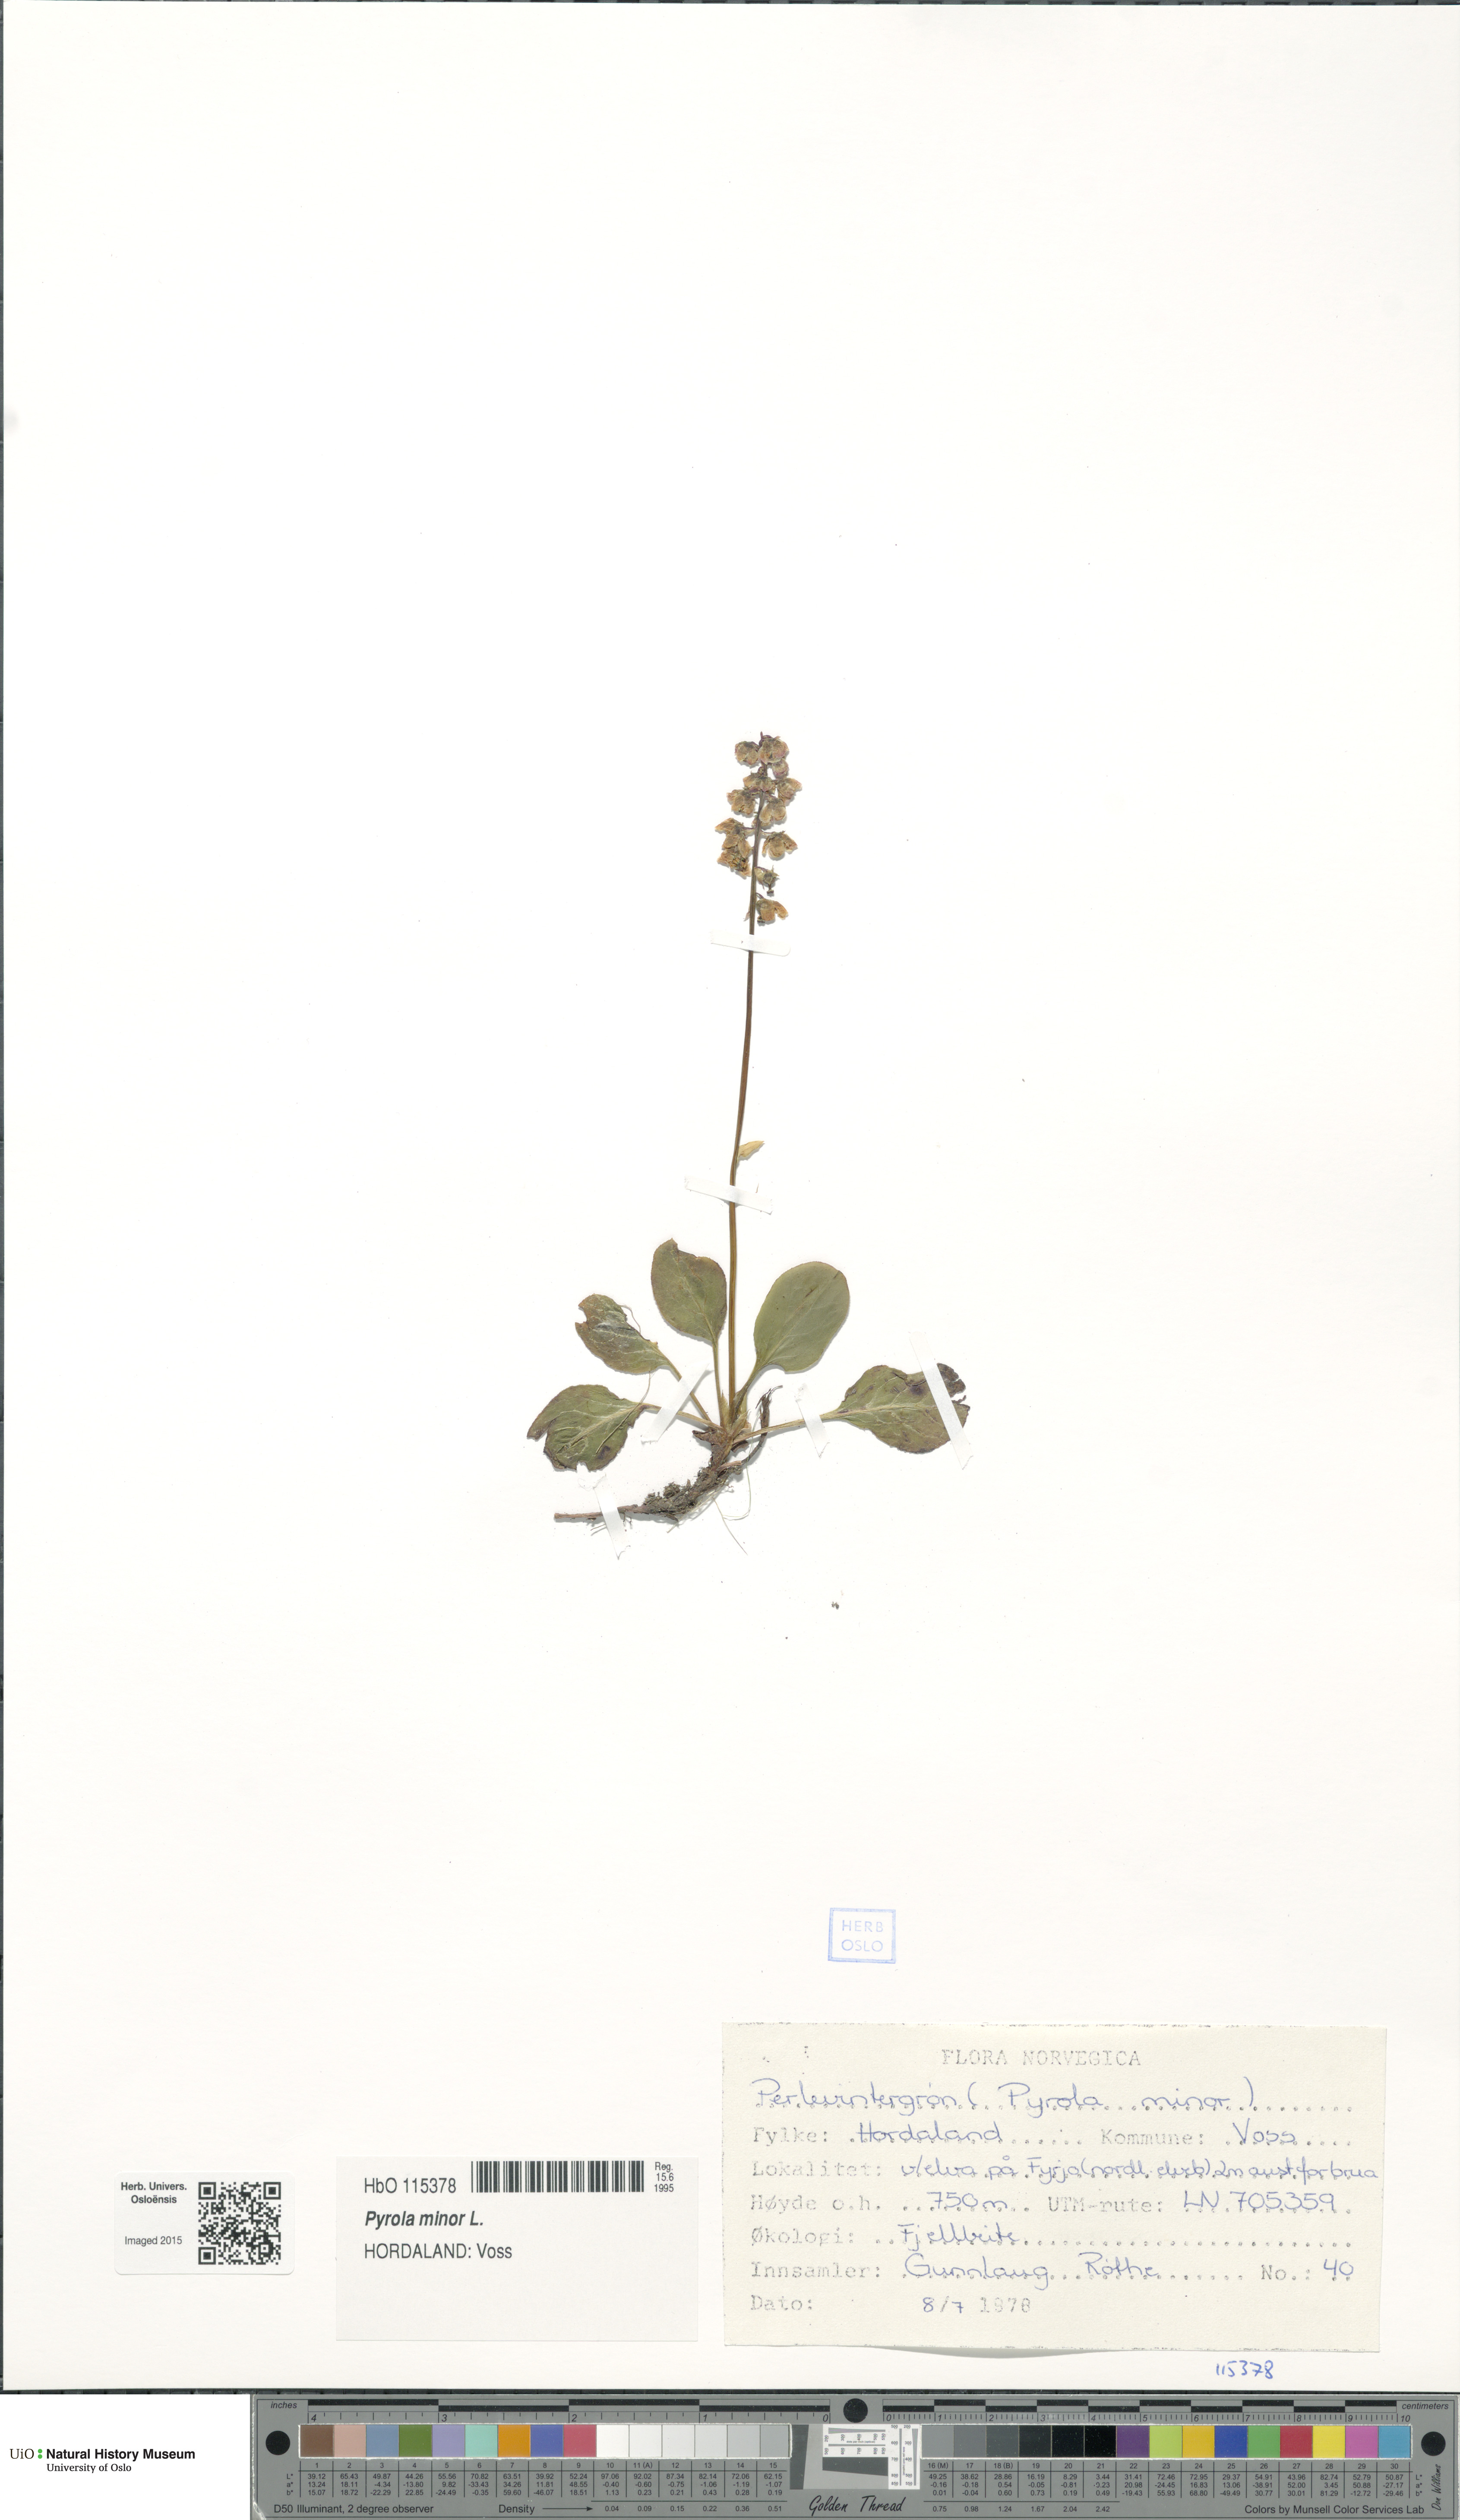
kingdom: Plantae
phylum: Tracheophyta
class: Magnoliopsida
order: Ericales
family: Ericaceae
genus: Pyrola
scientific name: Pyrola minor
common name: Common wintergreen
